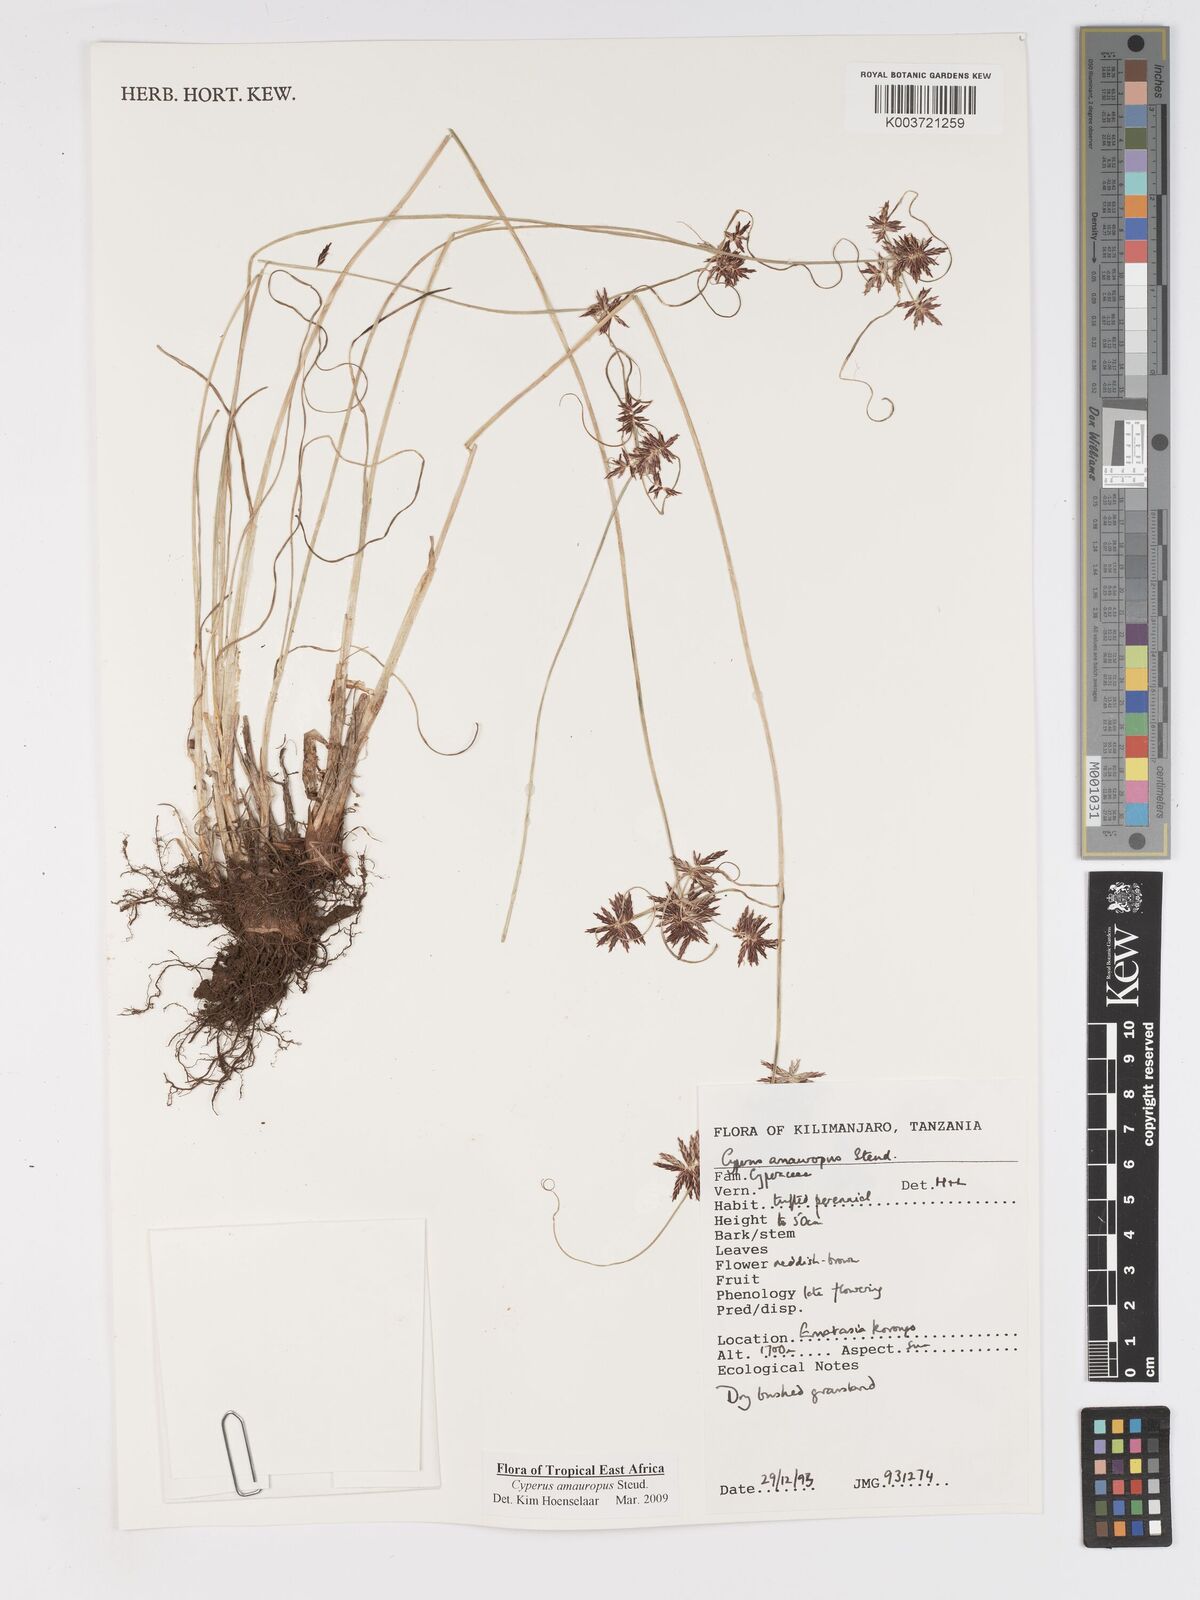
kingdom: Plantae
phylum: Tracheophyta
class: Liliopsida
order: Poales
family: Cyperaceae
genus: Cyperus
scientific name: Cyperus amauropus
